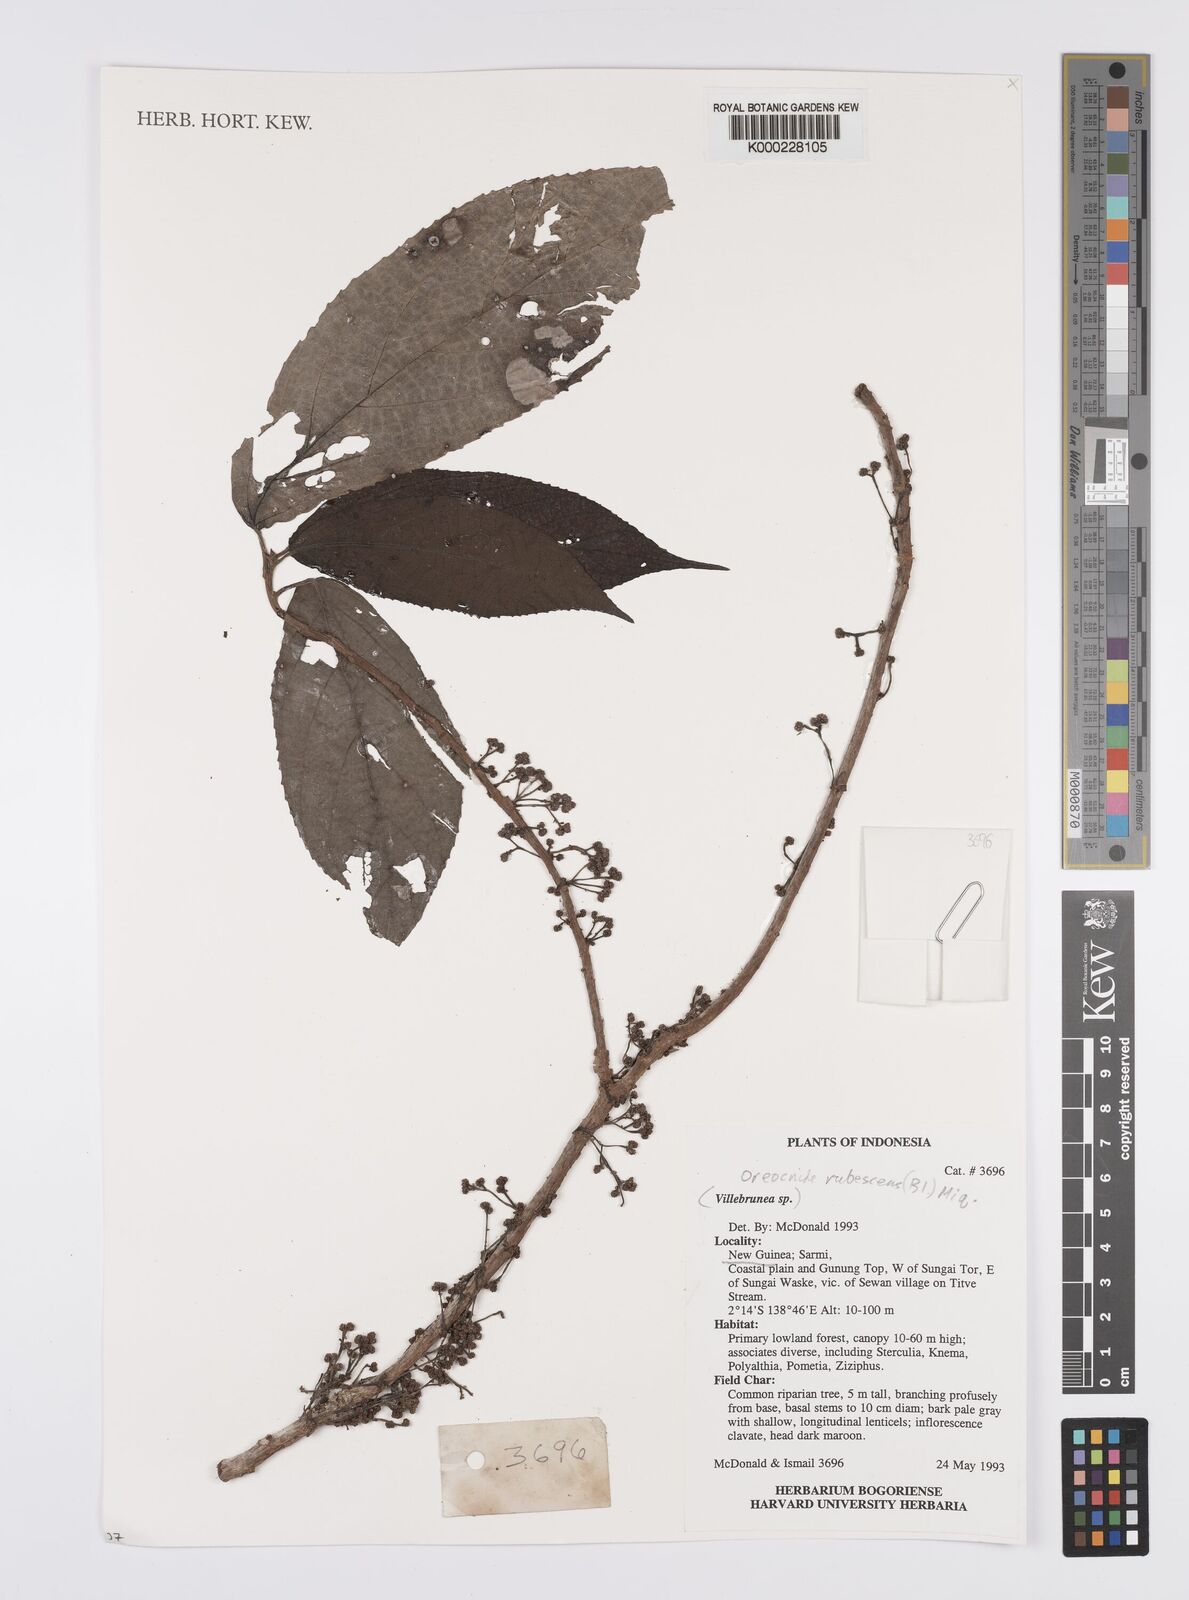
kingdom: Plantae
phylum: Tracheophyta
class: Magnoliopsida
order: Rosales
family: Urticaceae
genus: Oreocnide
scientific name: Oreocnide rubescens
